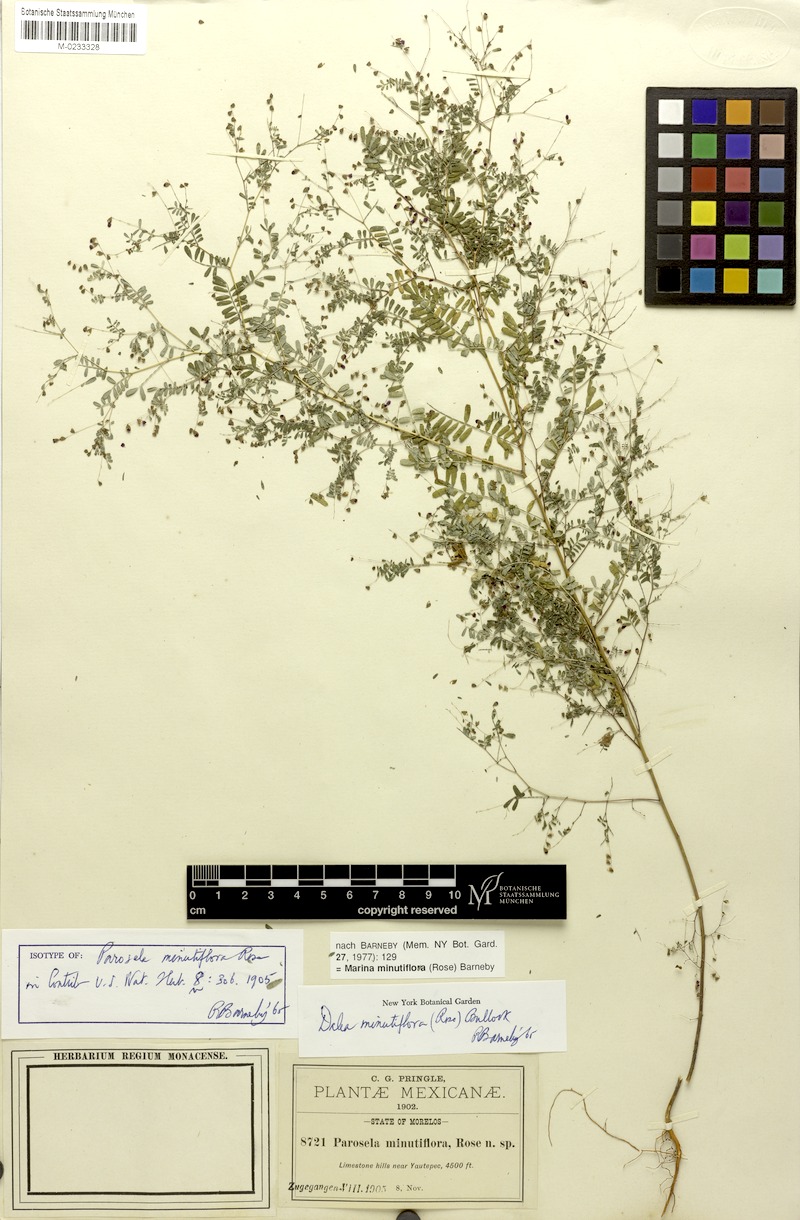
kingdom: Plantae
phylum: Tracheophyta
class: Magnoliopsida
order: Fabales
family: Fabaceae
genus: Marina
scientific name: Marina minutiflora
